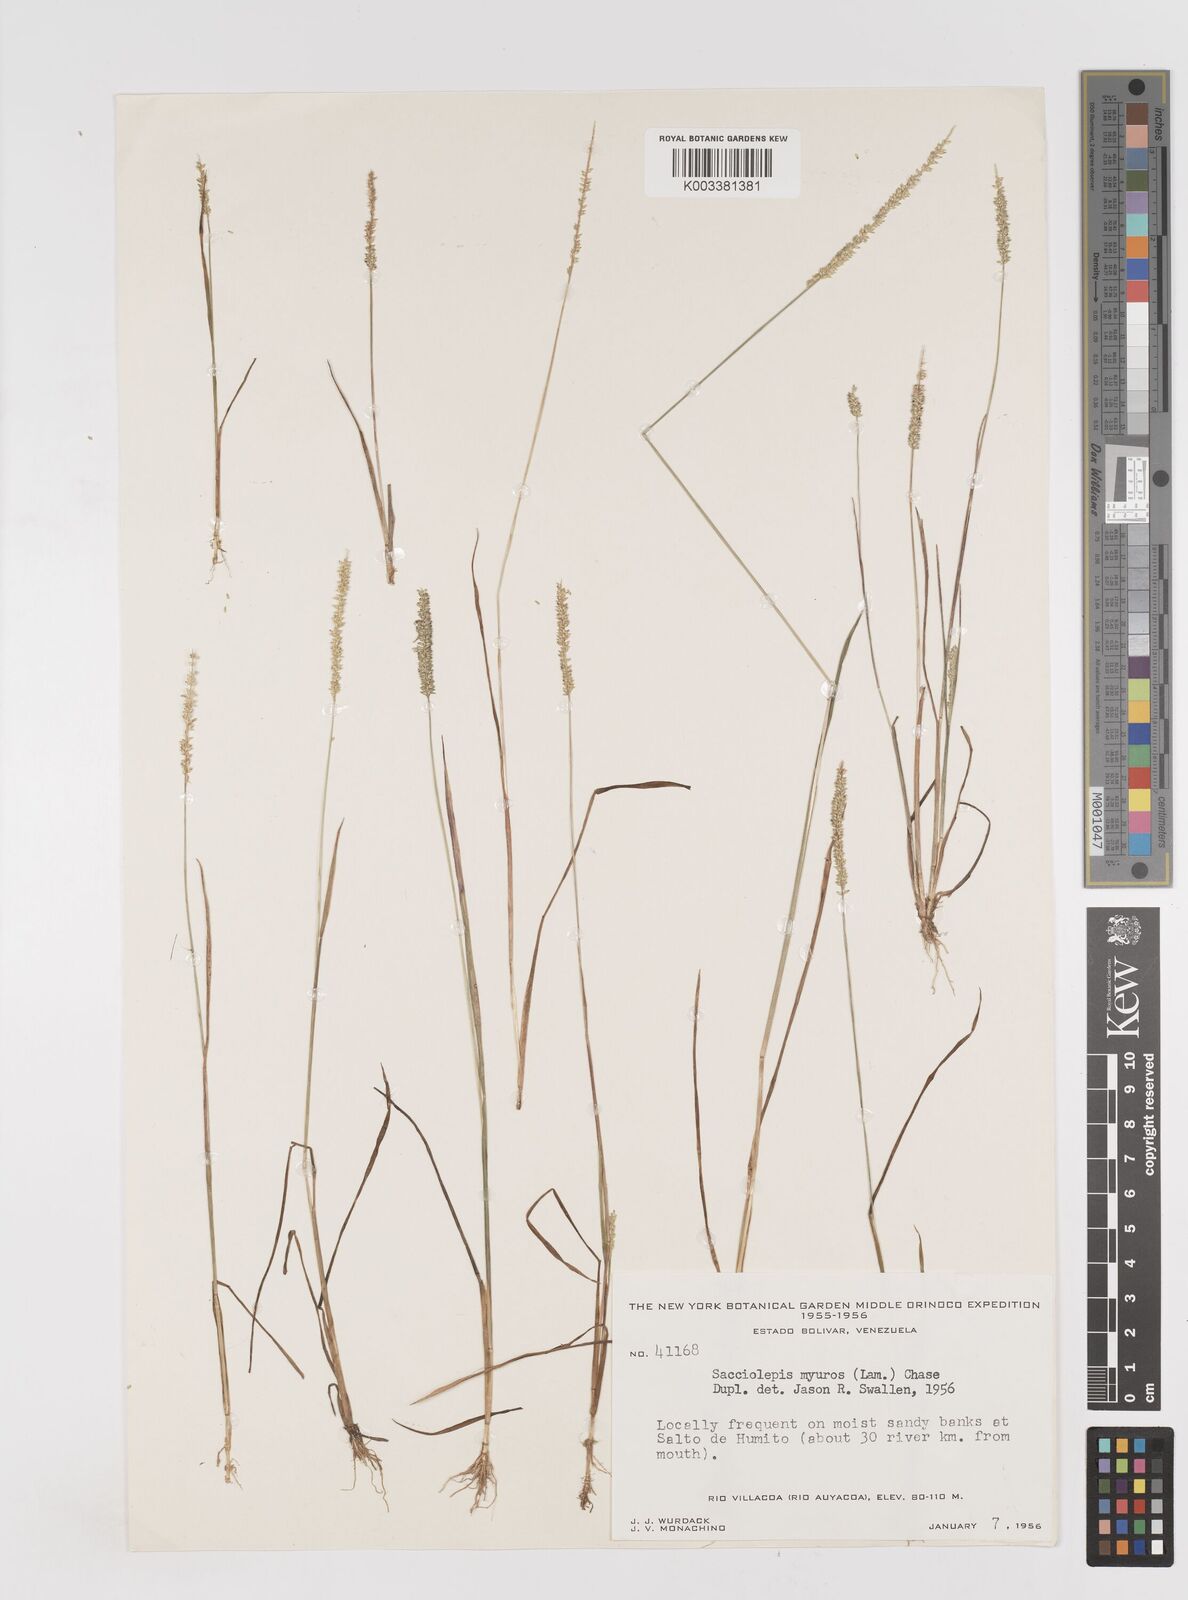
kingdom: Plantae
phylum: Tracheophyta
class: Liliopsida
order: Poales
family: Poaceae
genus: Sacciolepis
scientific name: Sacciolepis myuros
